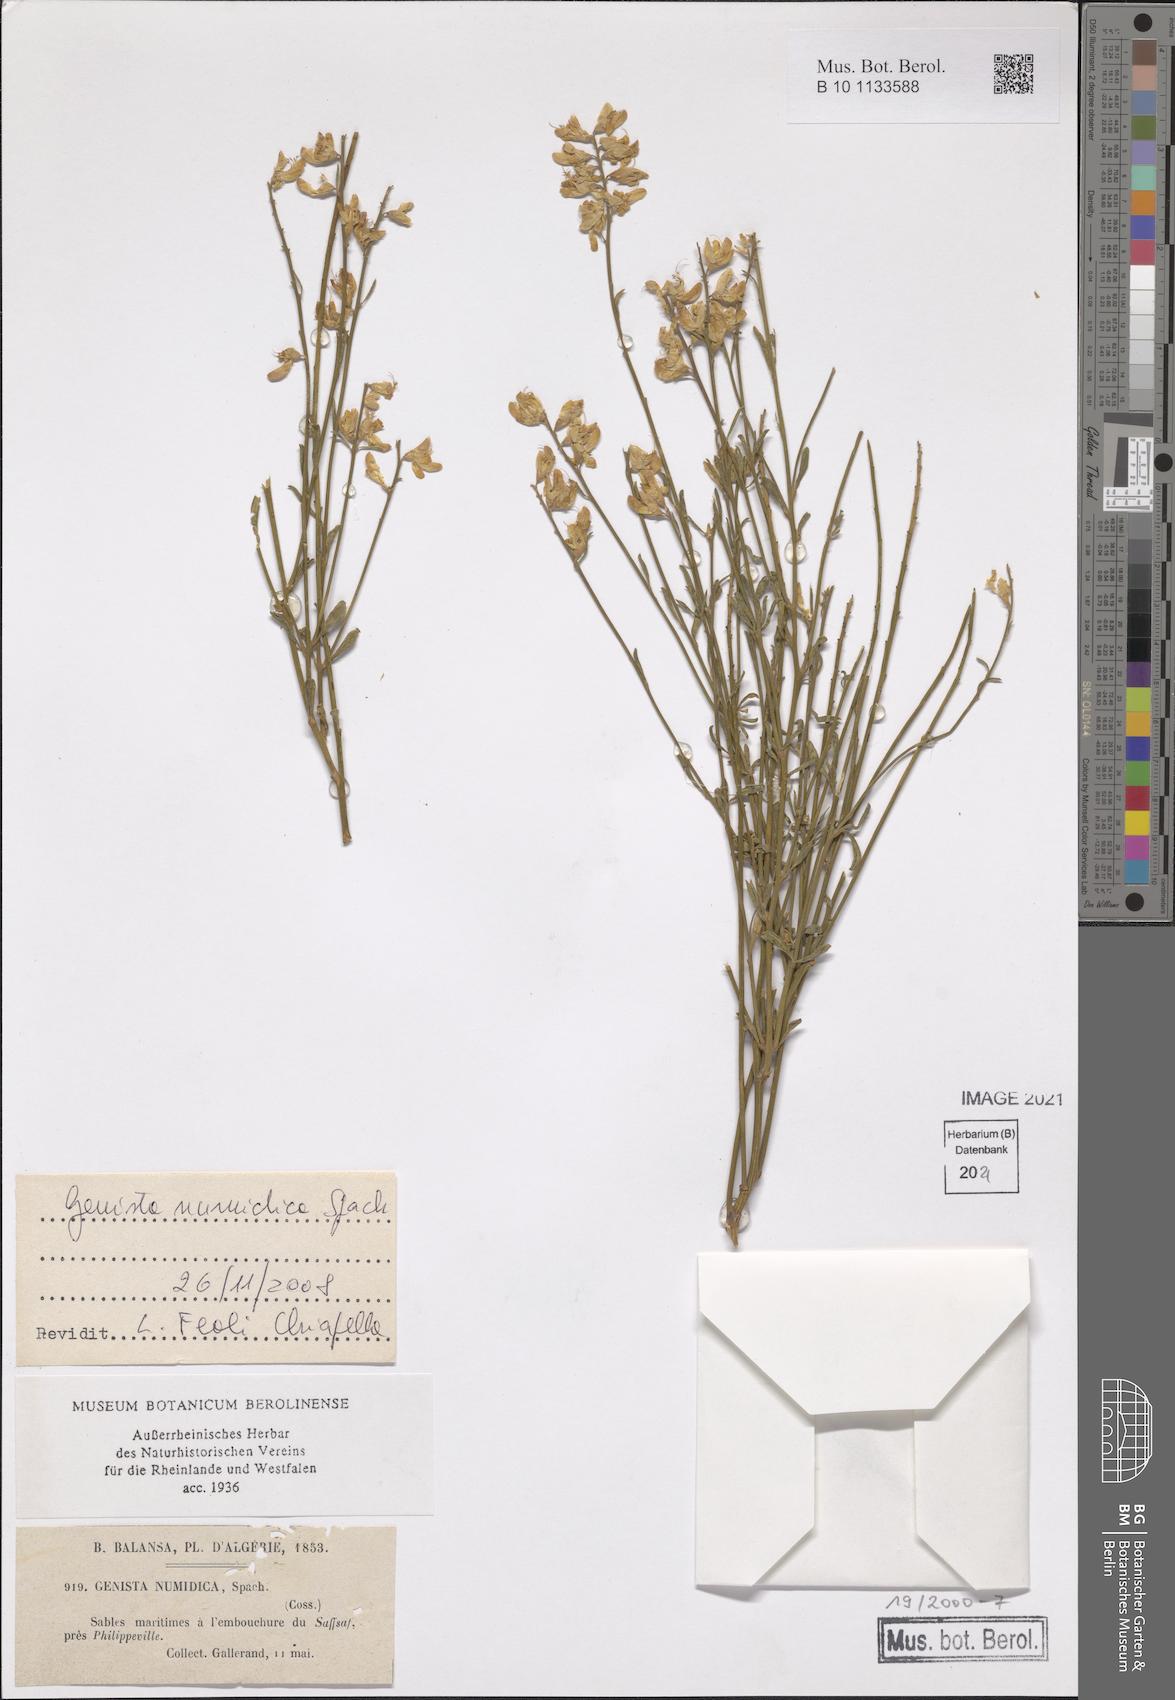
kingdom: Plantae
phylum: Tracheophyta
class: Magnoliopsida
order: Fabales
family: Fabaceae
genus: Genista
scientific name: Genista numidica
